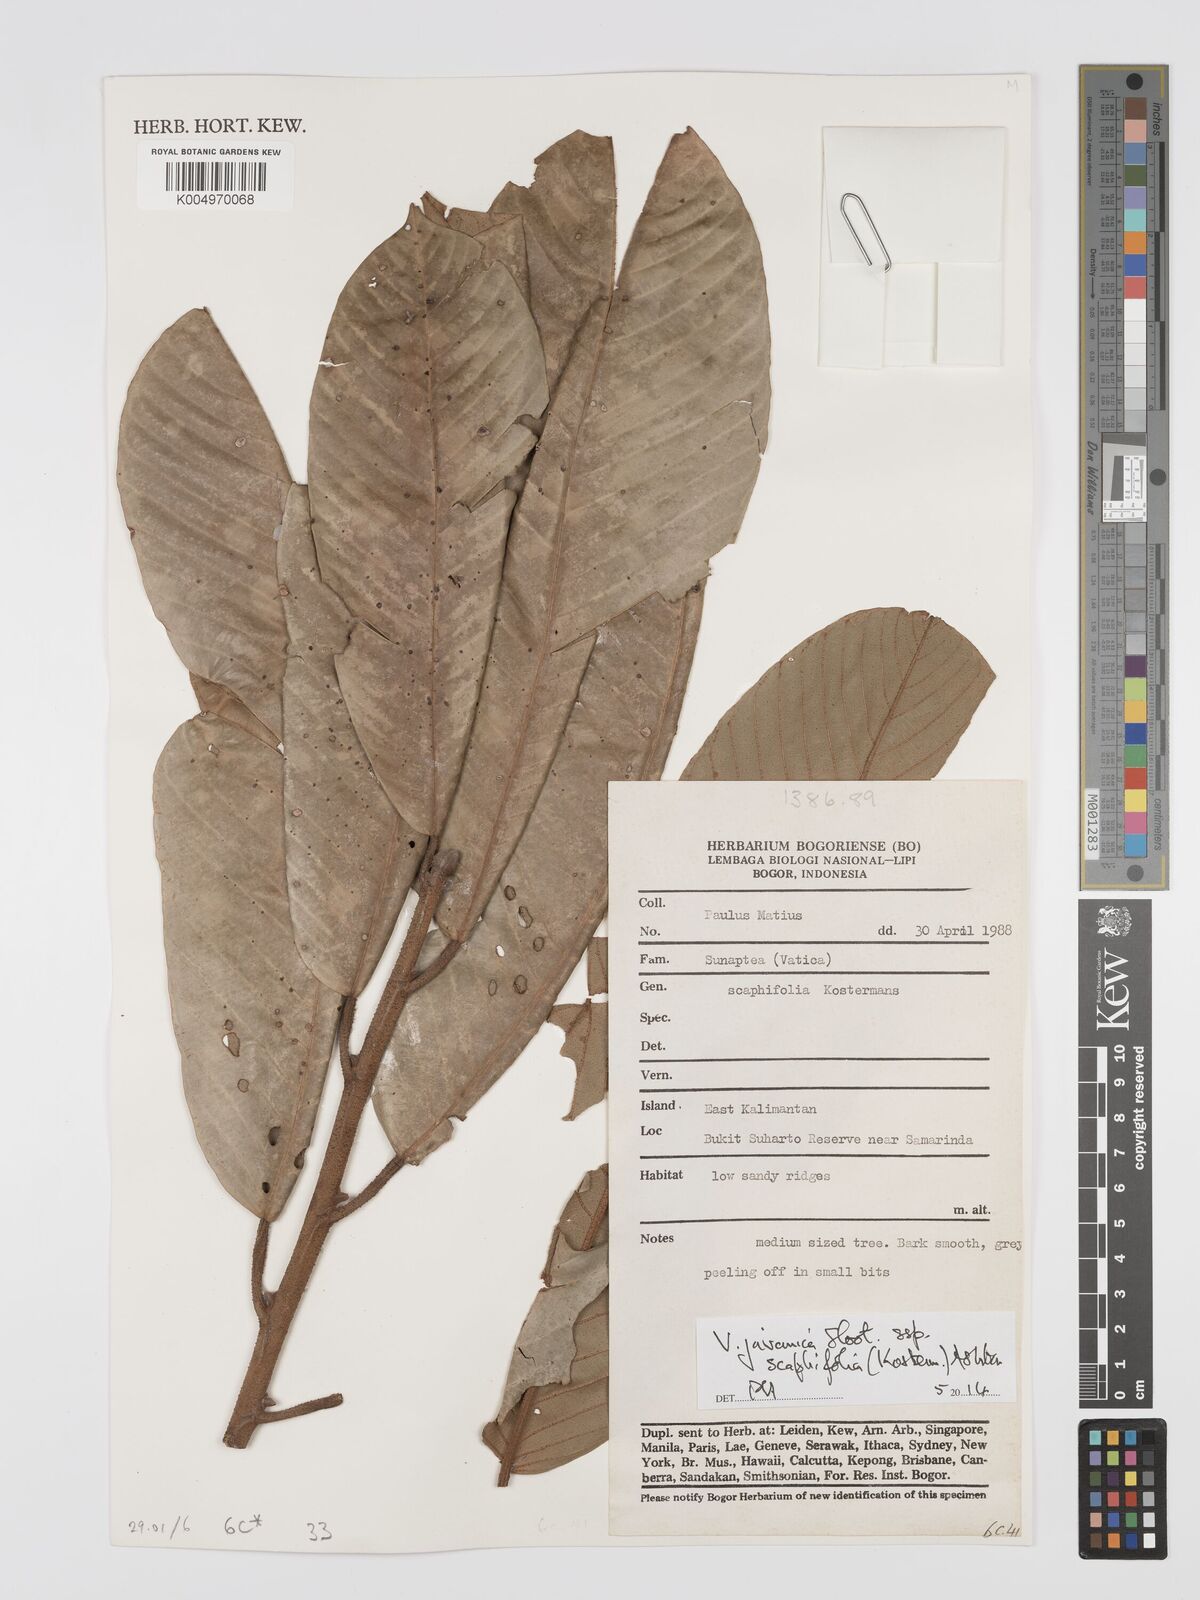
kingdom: Plantae
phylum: Tracheophyta
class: Magnoliopsida
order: Malvales
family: Dipterocarpaceae
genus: Vatica
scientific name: Vatica javanica
